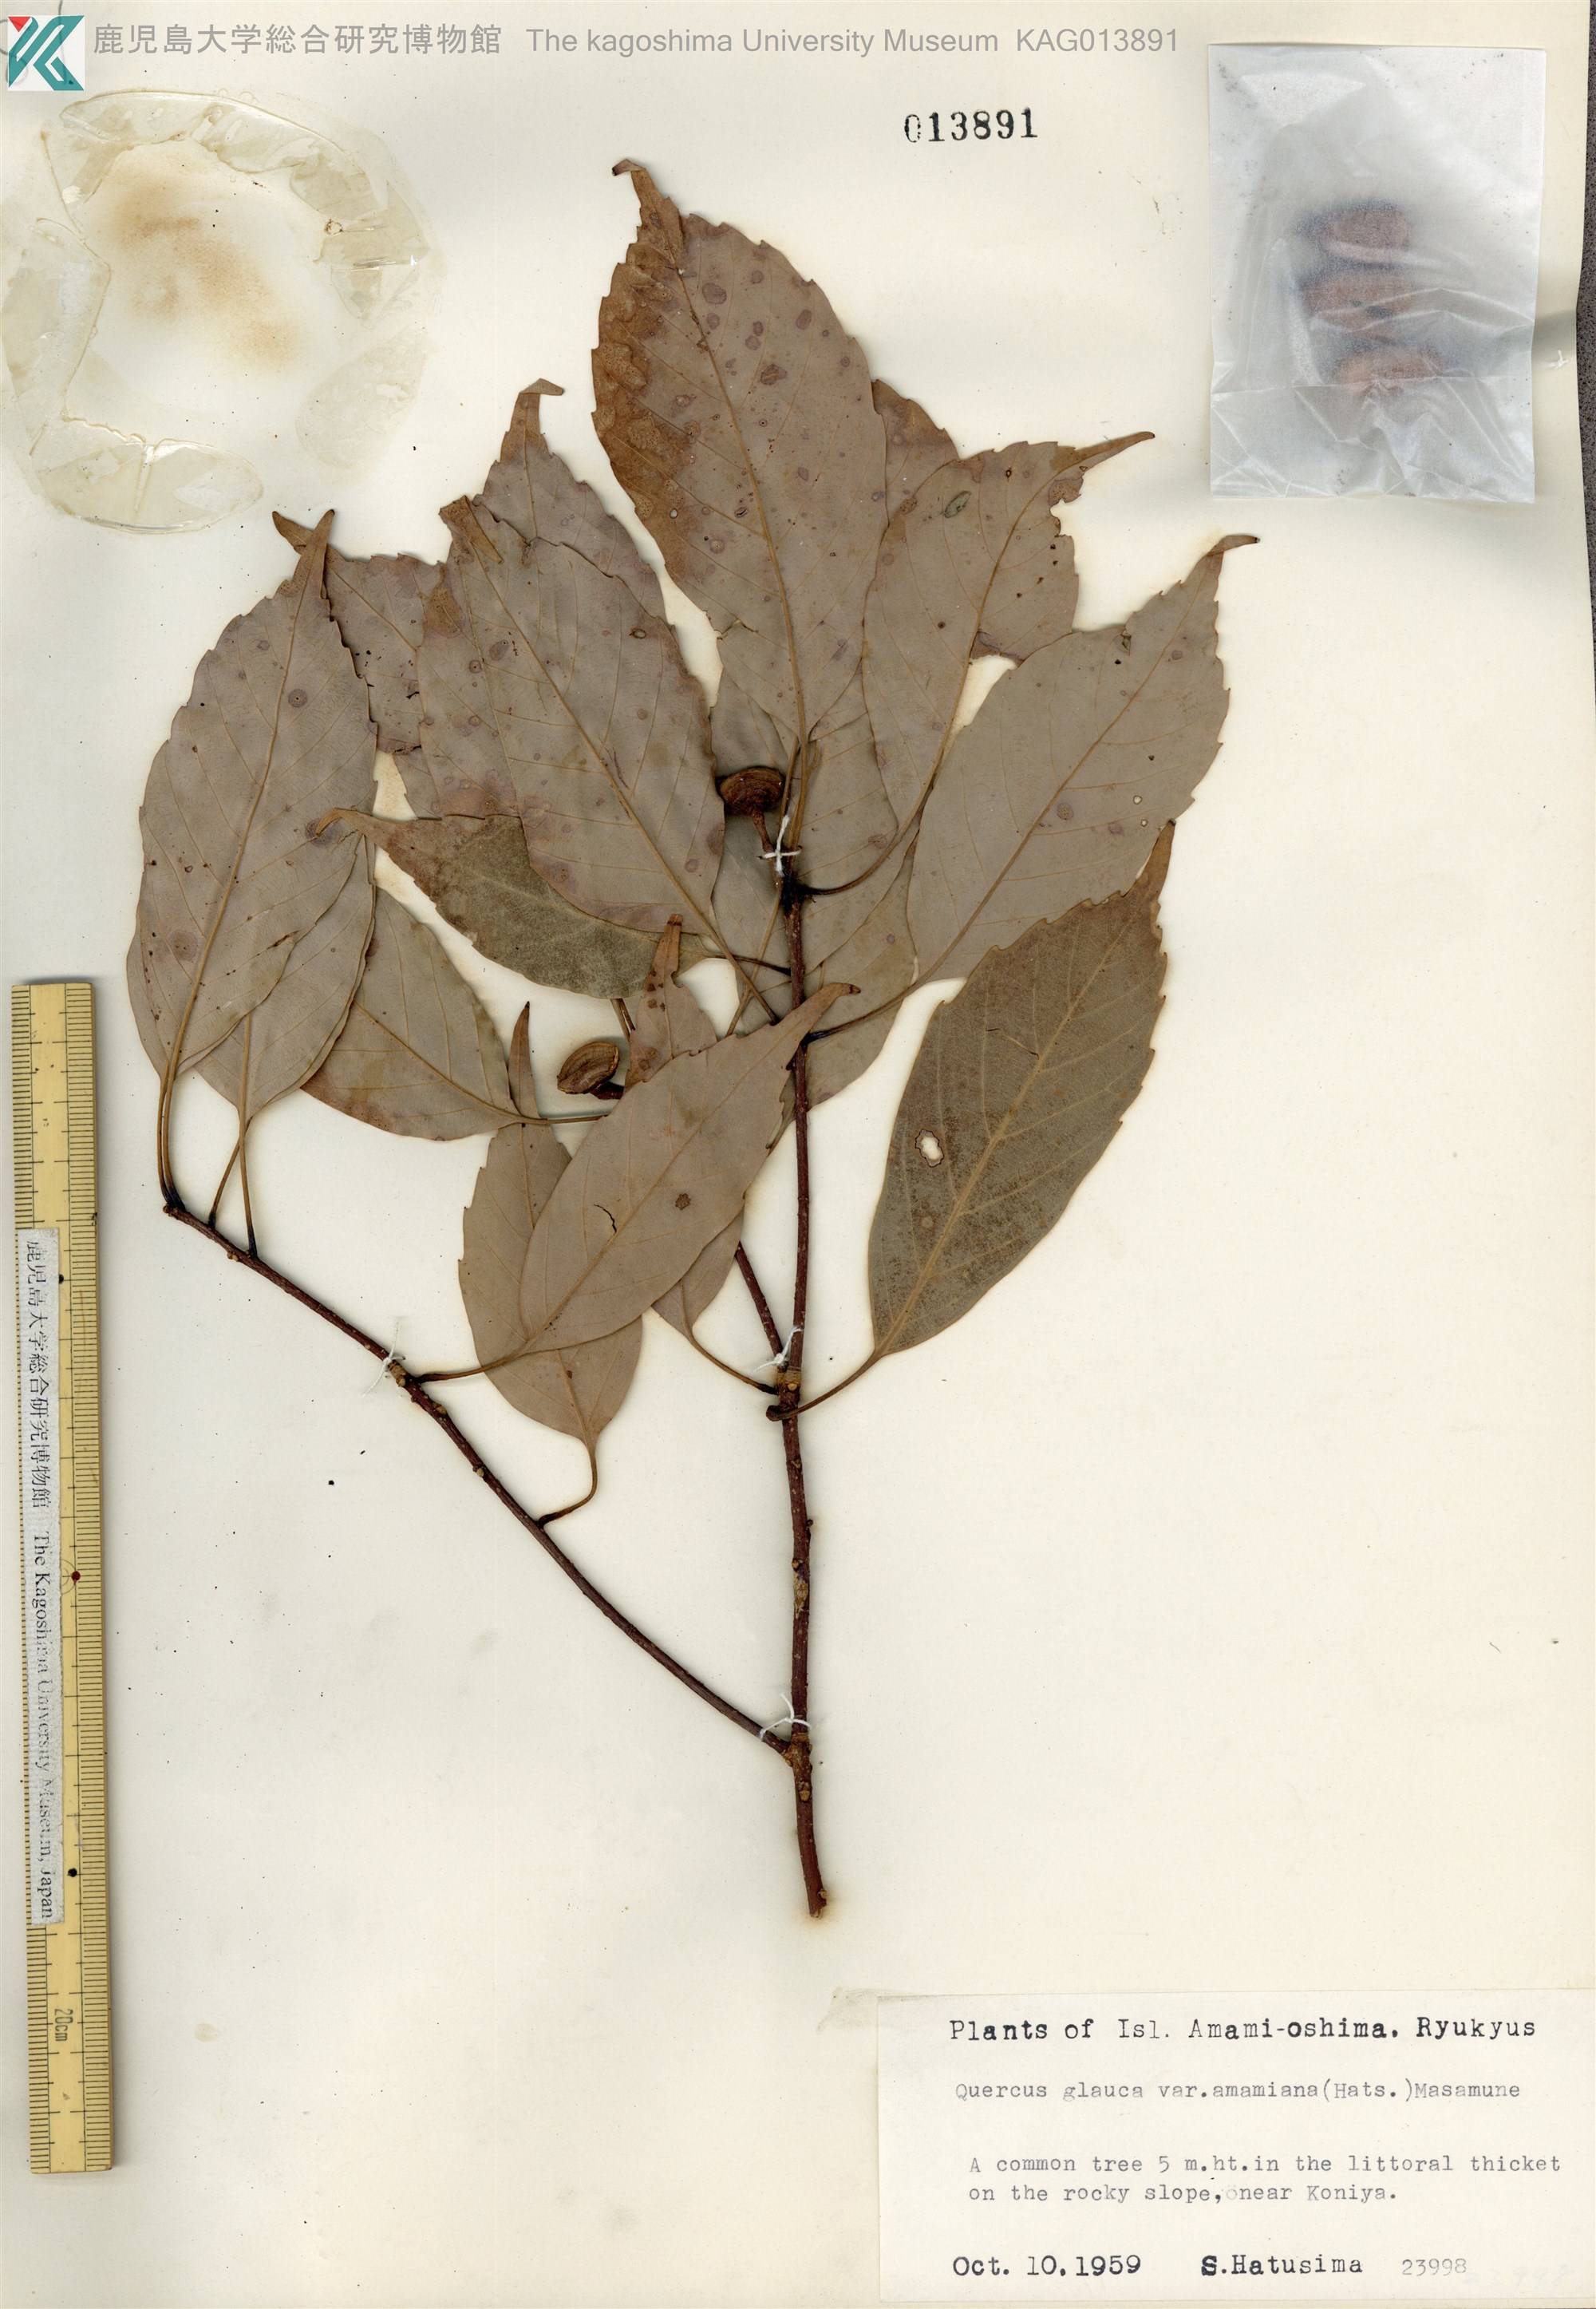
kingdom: Plantae
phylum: Tracheophyta
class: Magnoliopsida
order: Fagales
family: Fagaceae
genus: Quercus
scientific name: Quercus glauca
